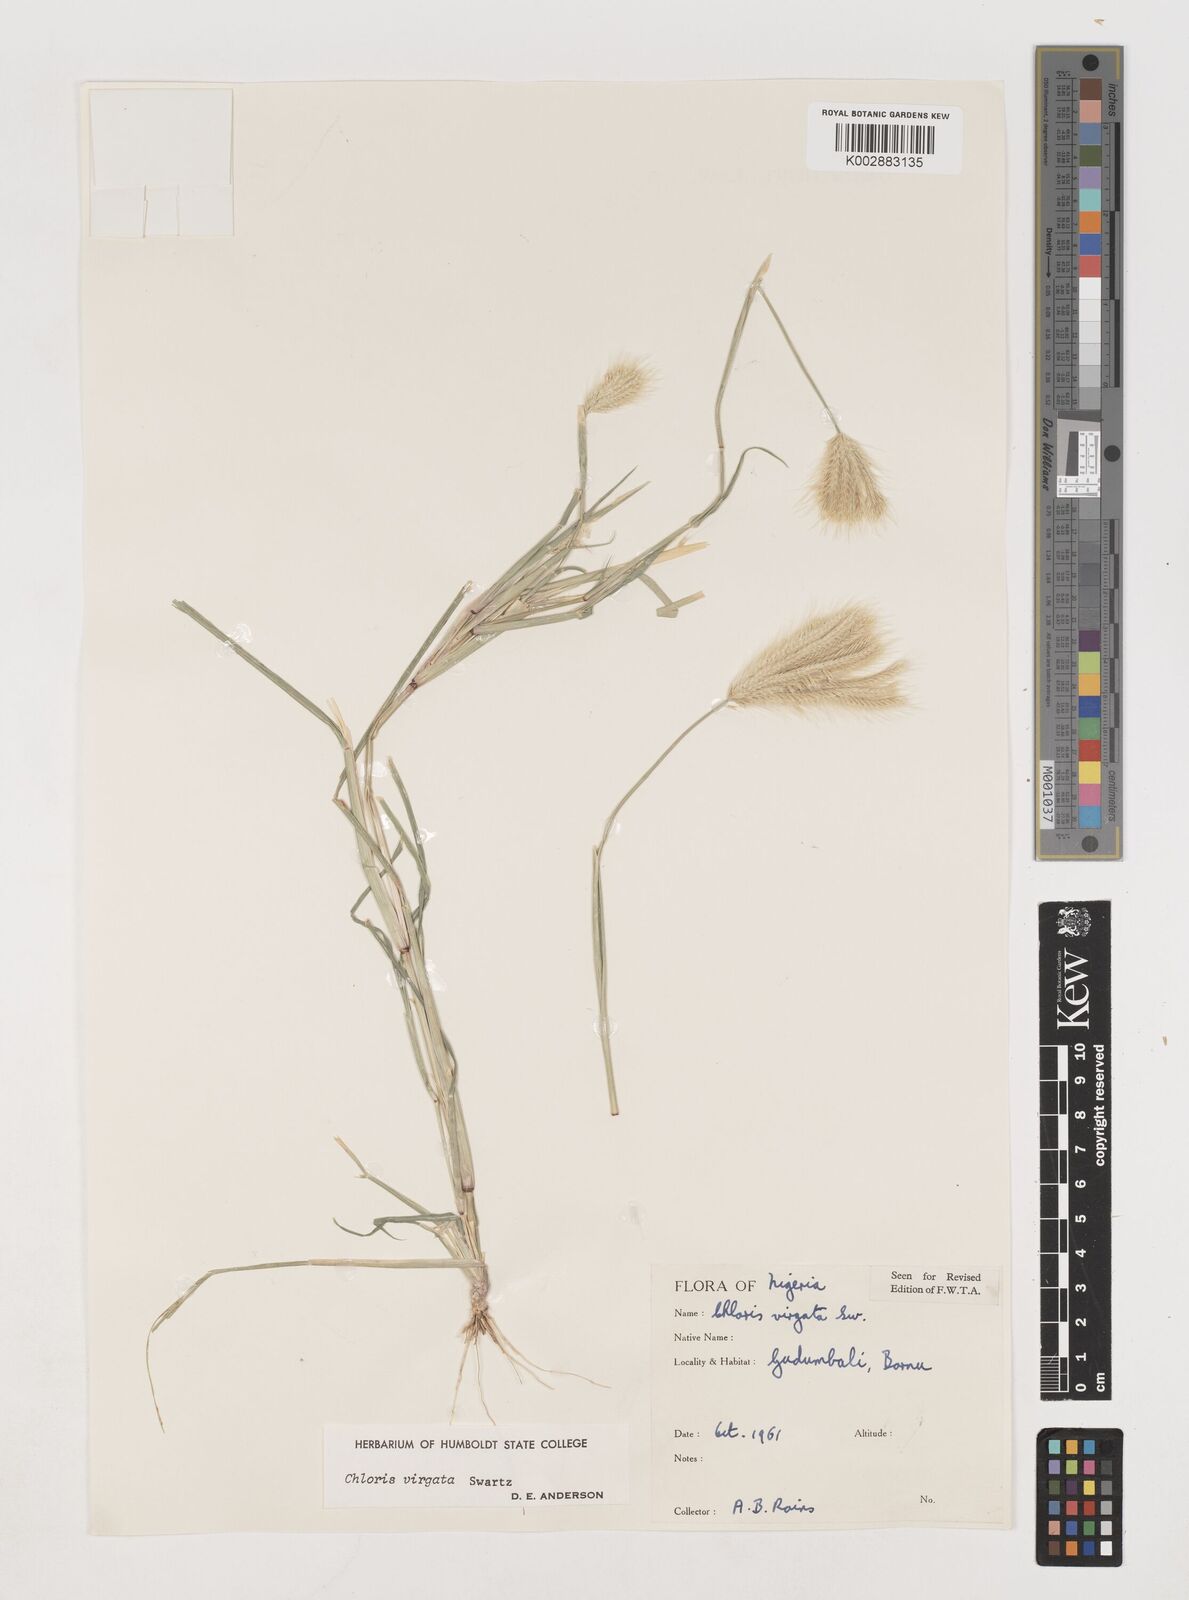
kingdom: Plantae
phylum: Tracheophyta
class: Liliopsida
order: Poales
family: Poaceae
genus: Chloris
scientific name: Chloris virgata
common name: Feathery rhodes-grass
